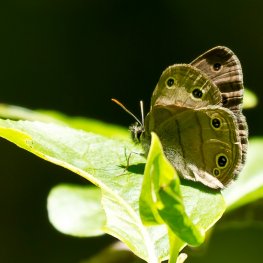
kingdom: Animalia
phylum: Arthropoda
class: Insecta
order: Lepidoptera
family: Nymphalidae
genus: Euptychia
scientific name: Euptychia cymela
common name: Little Wood Satyr
